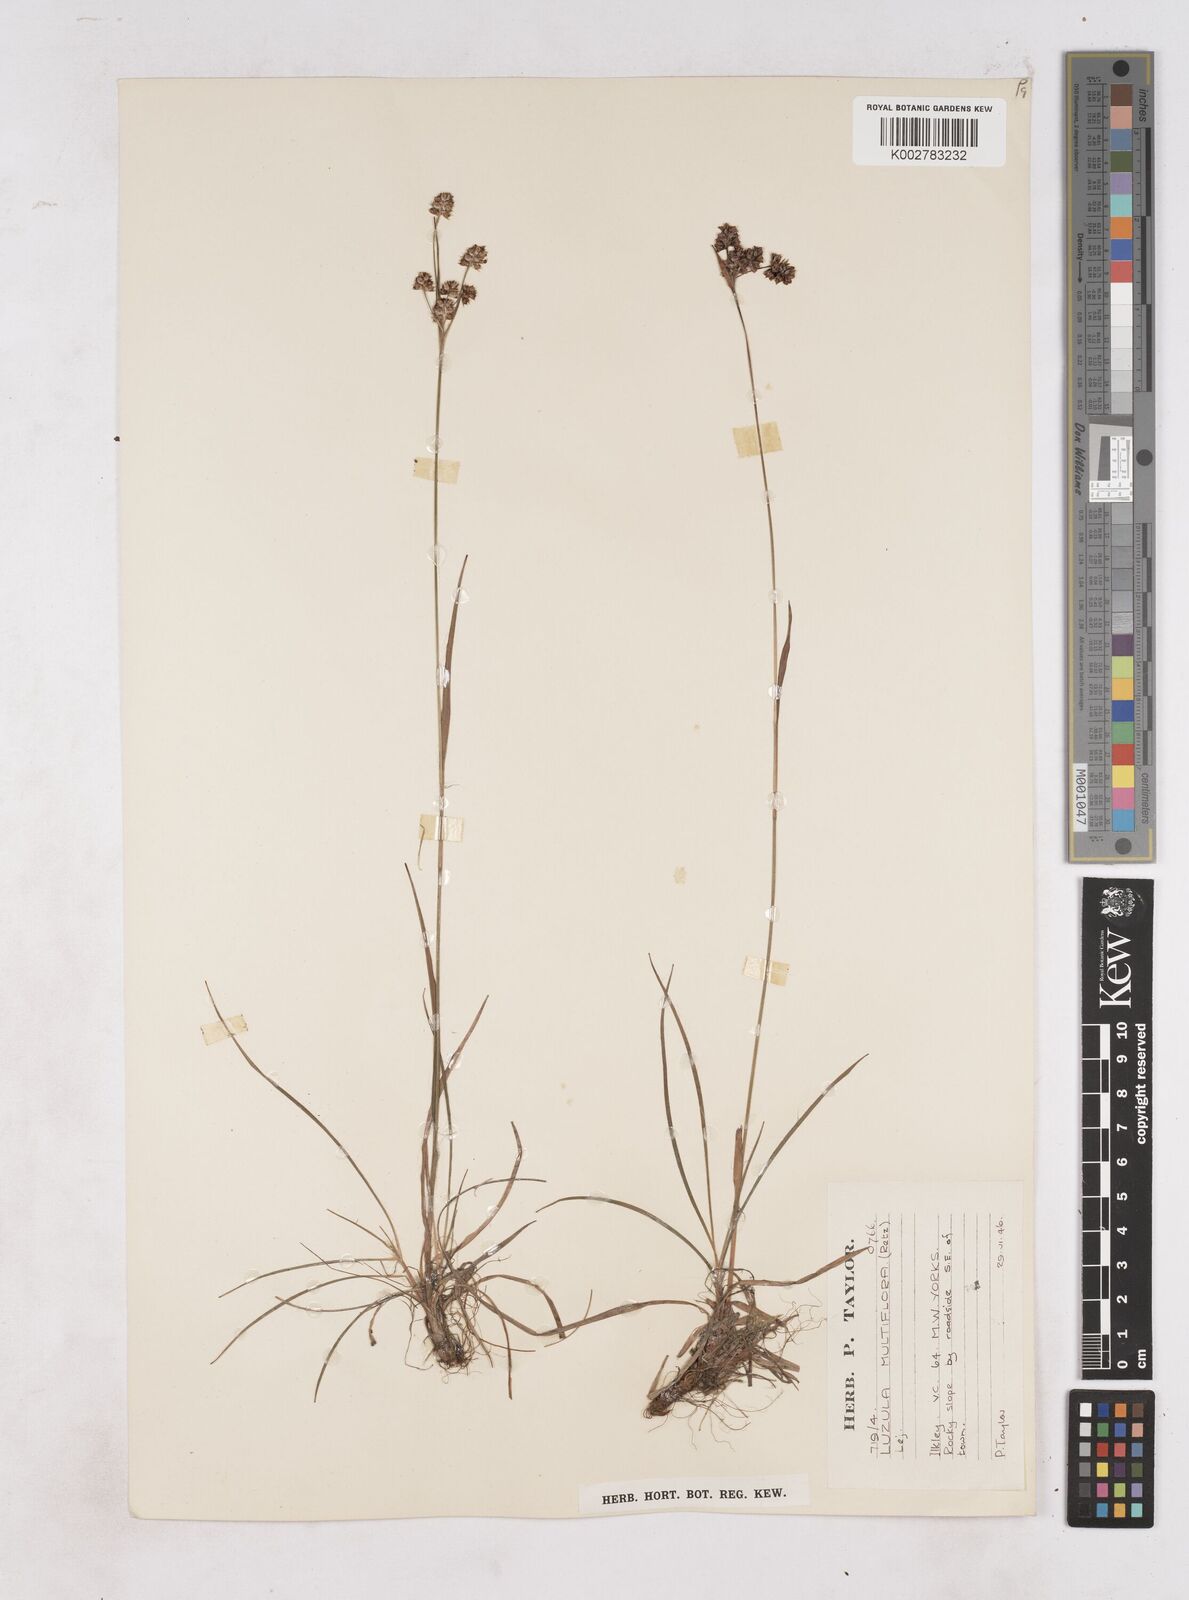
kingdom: Plantae
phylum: Tracheophyta
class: Liliopsida
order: Poales
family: Juncaceae
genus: Luzula
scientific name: Luzula multiflora
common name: Heath wood-rush
